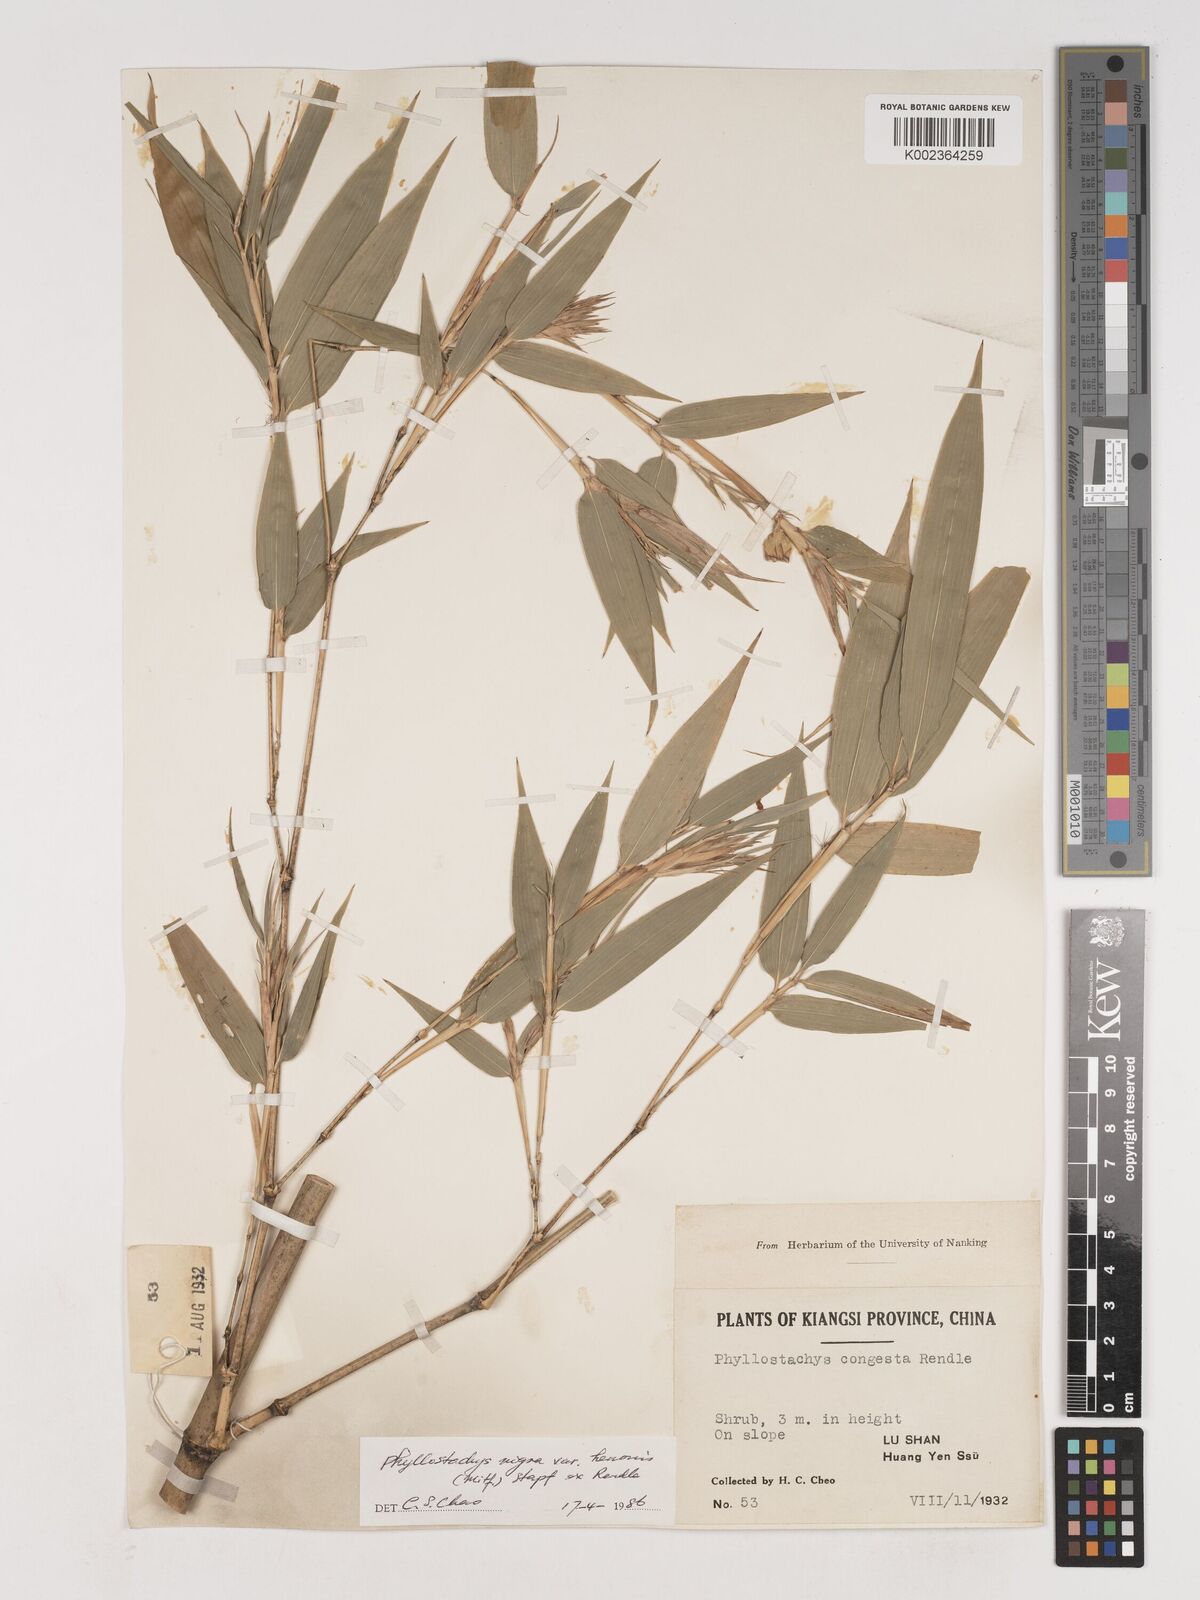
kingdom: Plantae
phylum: Tracheophyta
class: Liliopsida
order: Poales
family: Poaceae
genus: Phyllostachys
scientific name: Phyllostachys nigra
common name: Black bamboo
